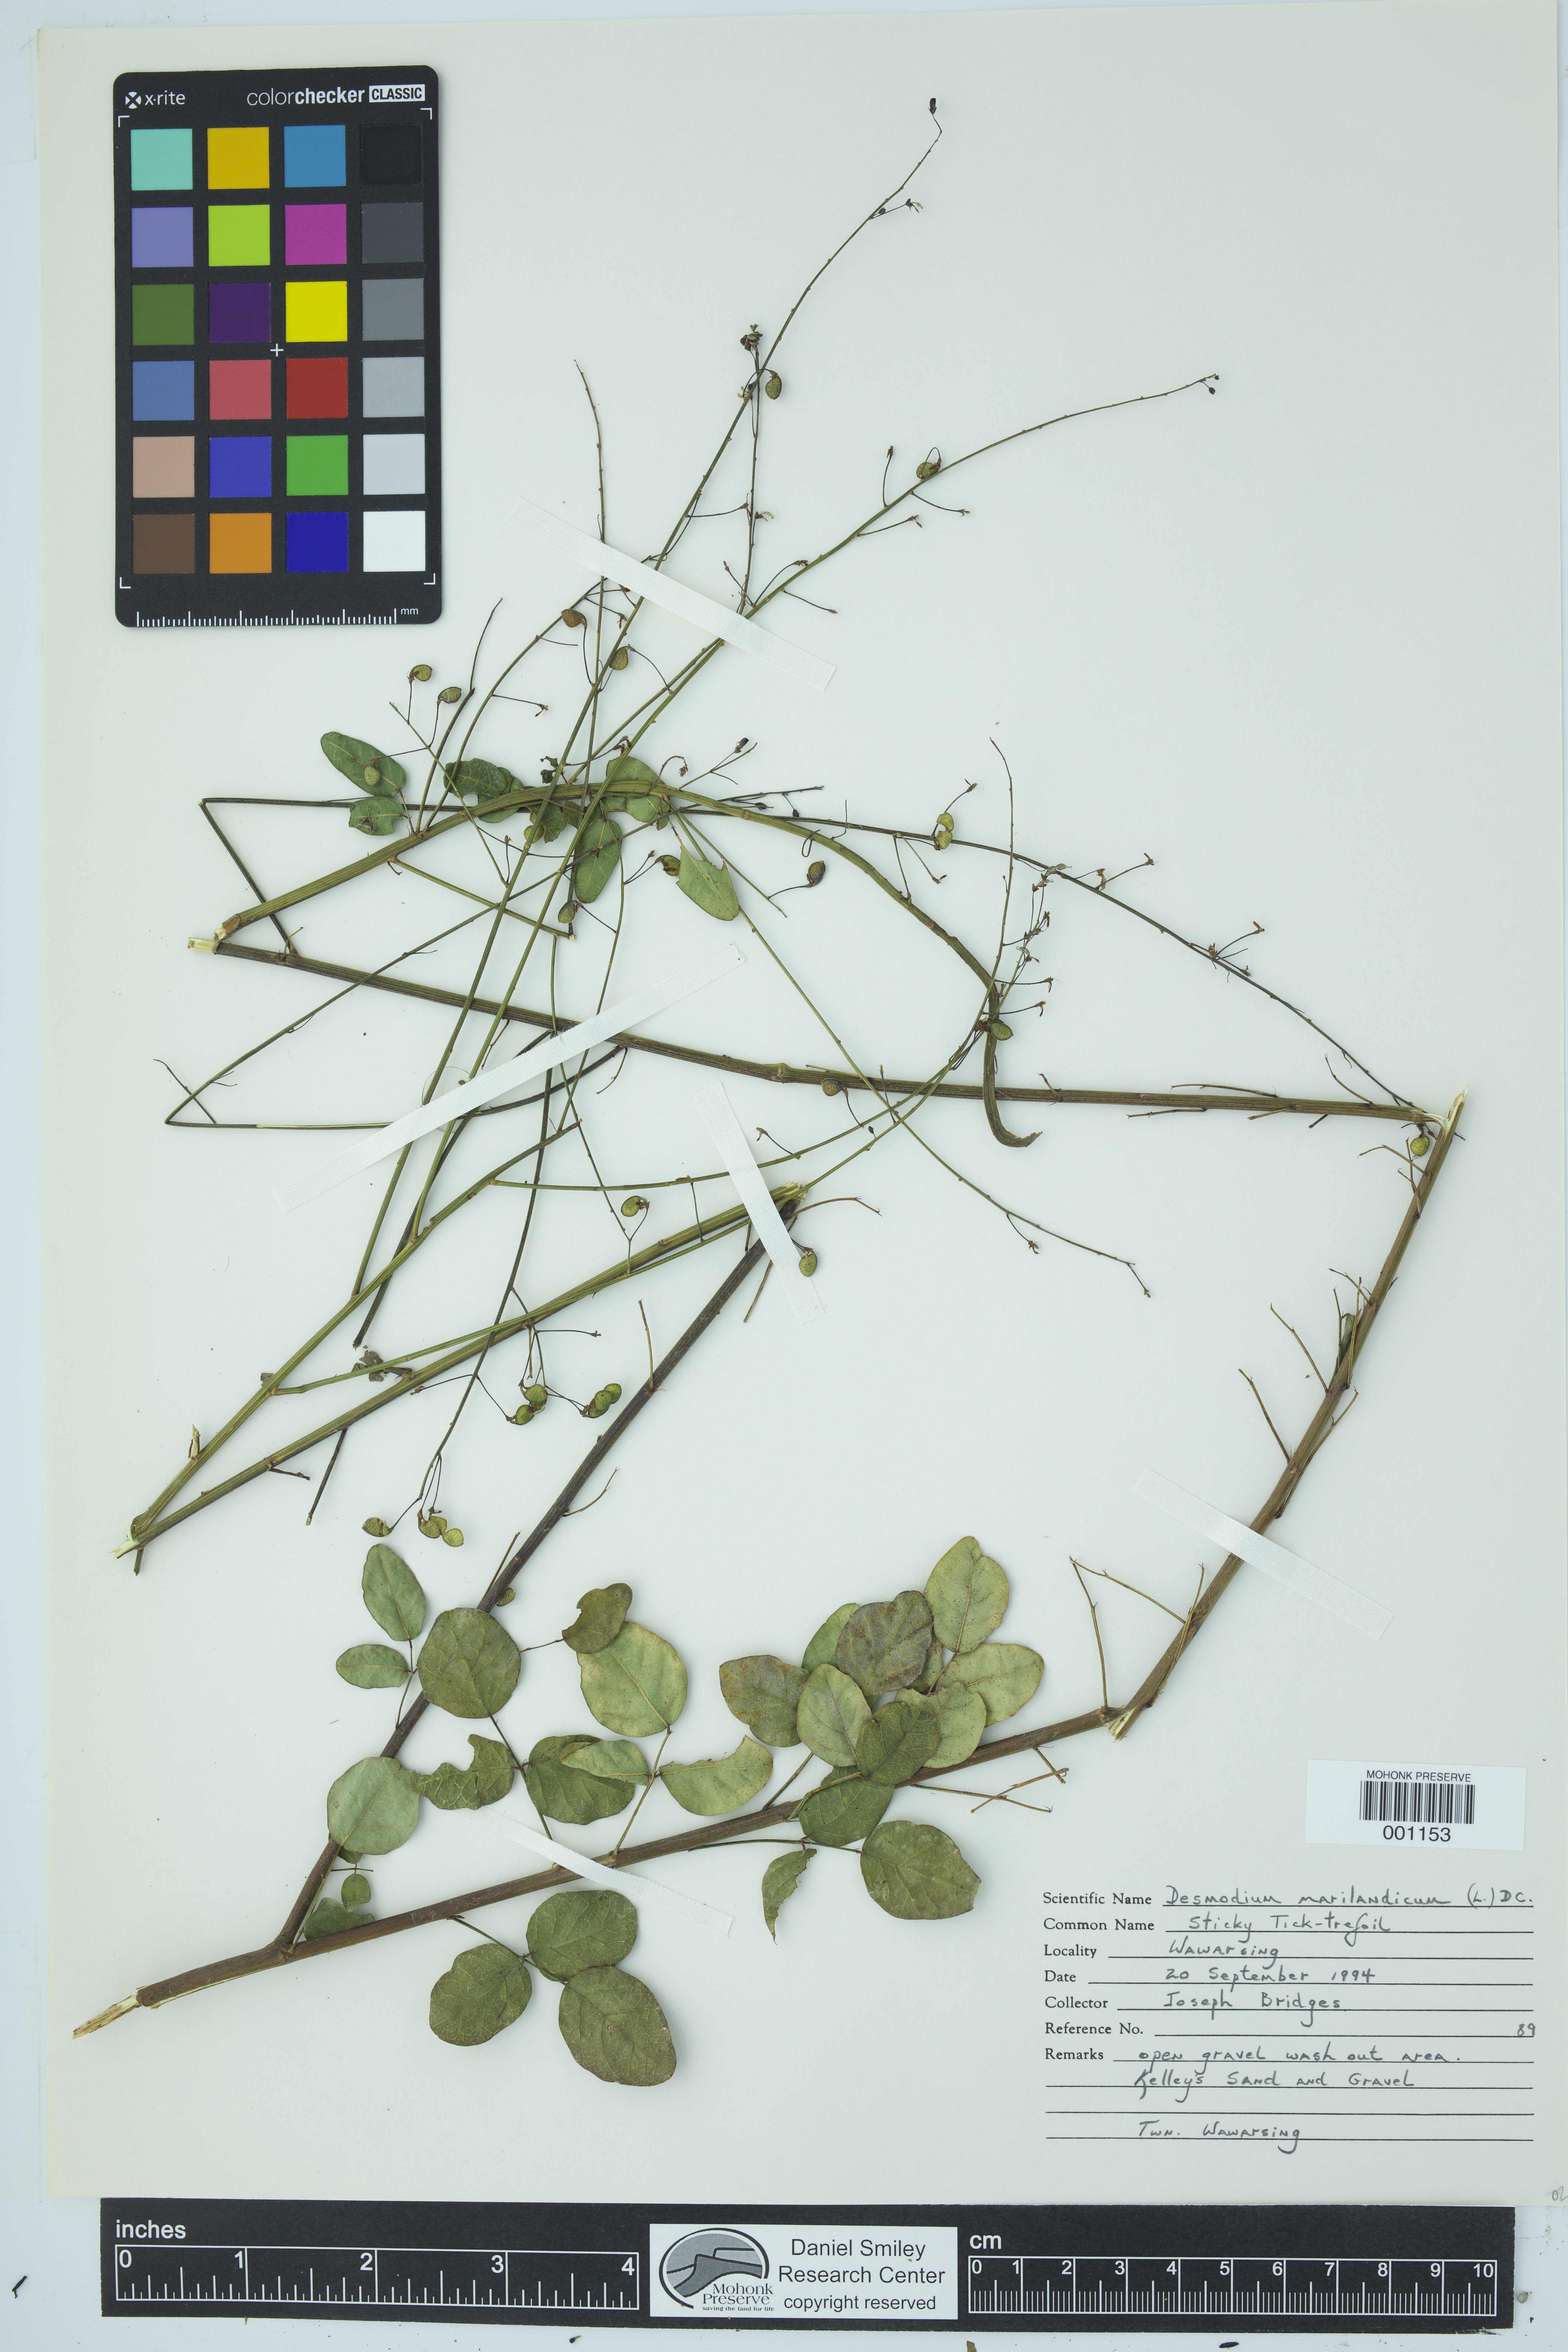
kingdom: Plantae
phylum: Tracheophyta
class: Magnoliopsida
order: Fabales
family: Fabaceae
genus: Desmodium
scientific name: Desmodium marilandicum
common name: Maryland tick-trefoil
